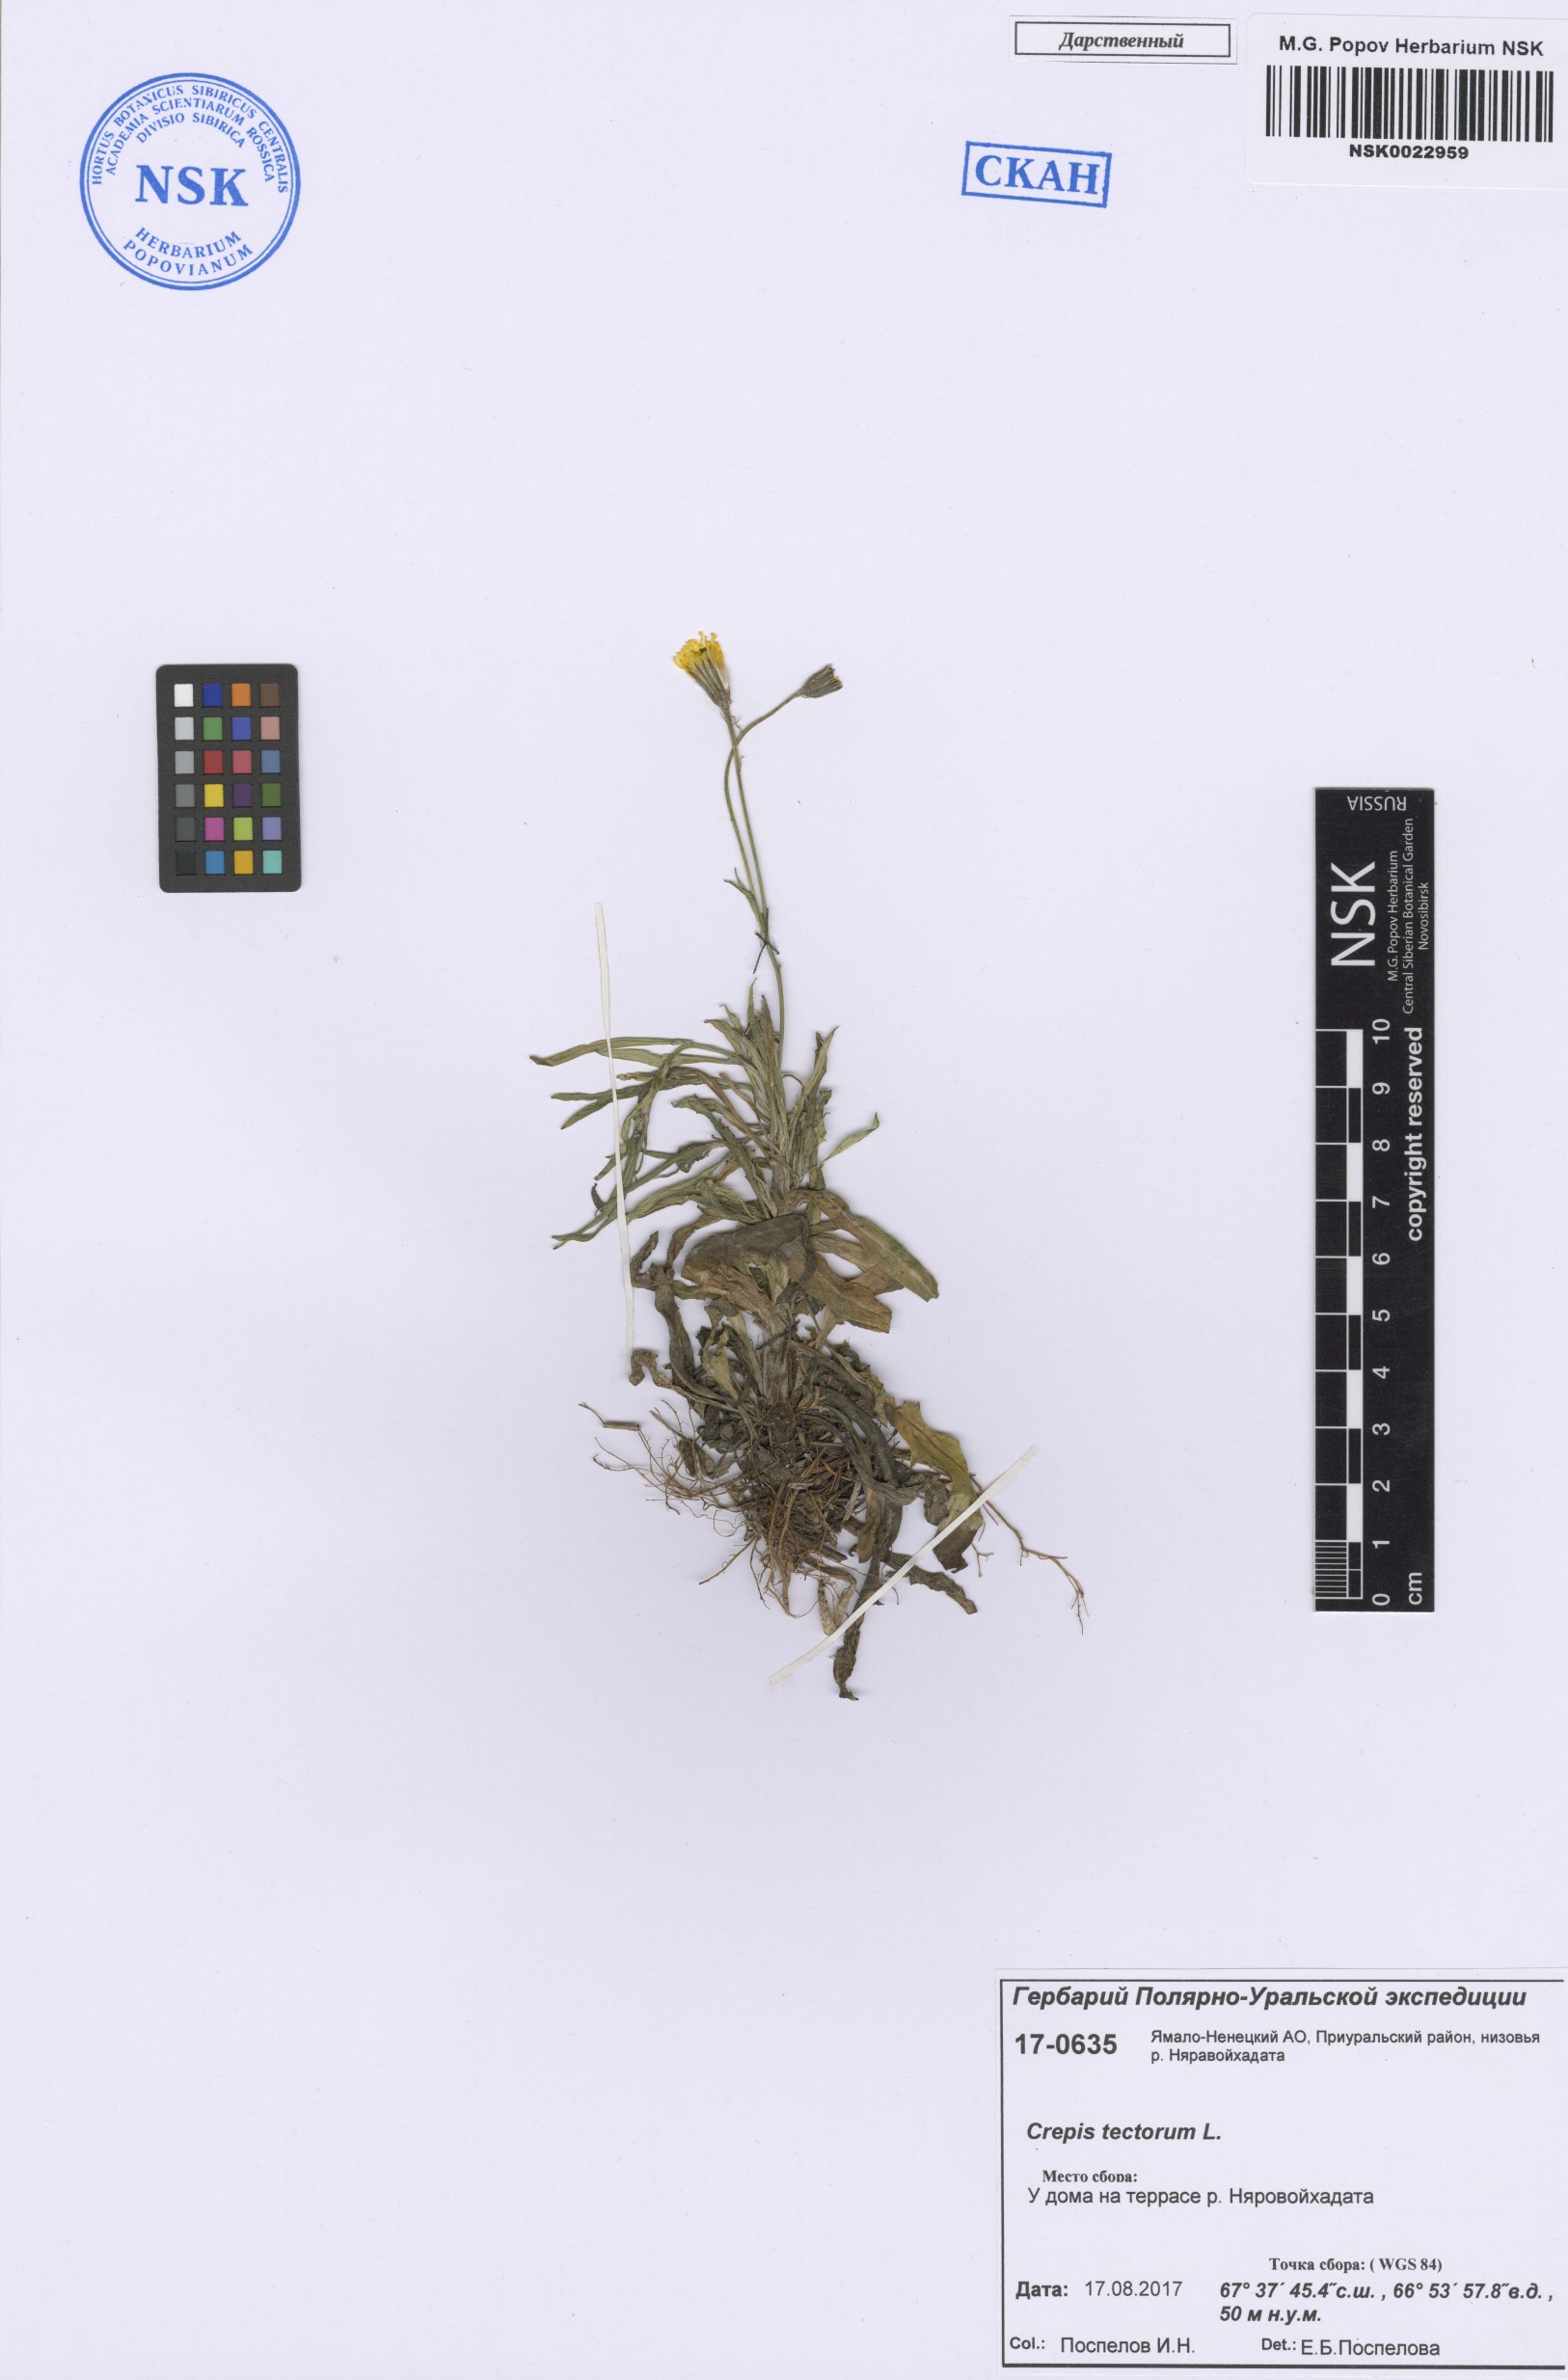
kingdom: Plantae
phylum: Tracheophyta
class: Magnoliopsida
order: Asterales
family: Asteraceae
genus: Crepis
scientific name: Crepis tectorum
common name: Narrow-leaved hawk's-beard
